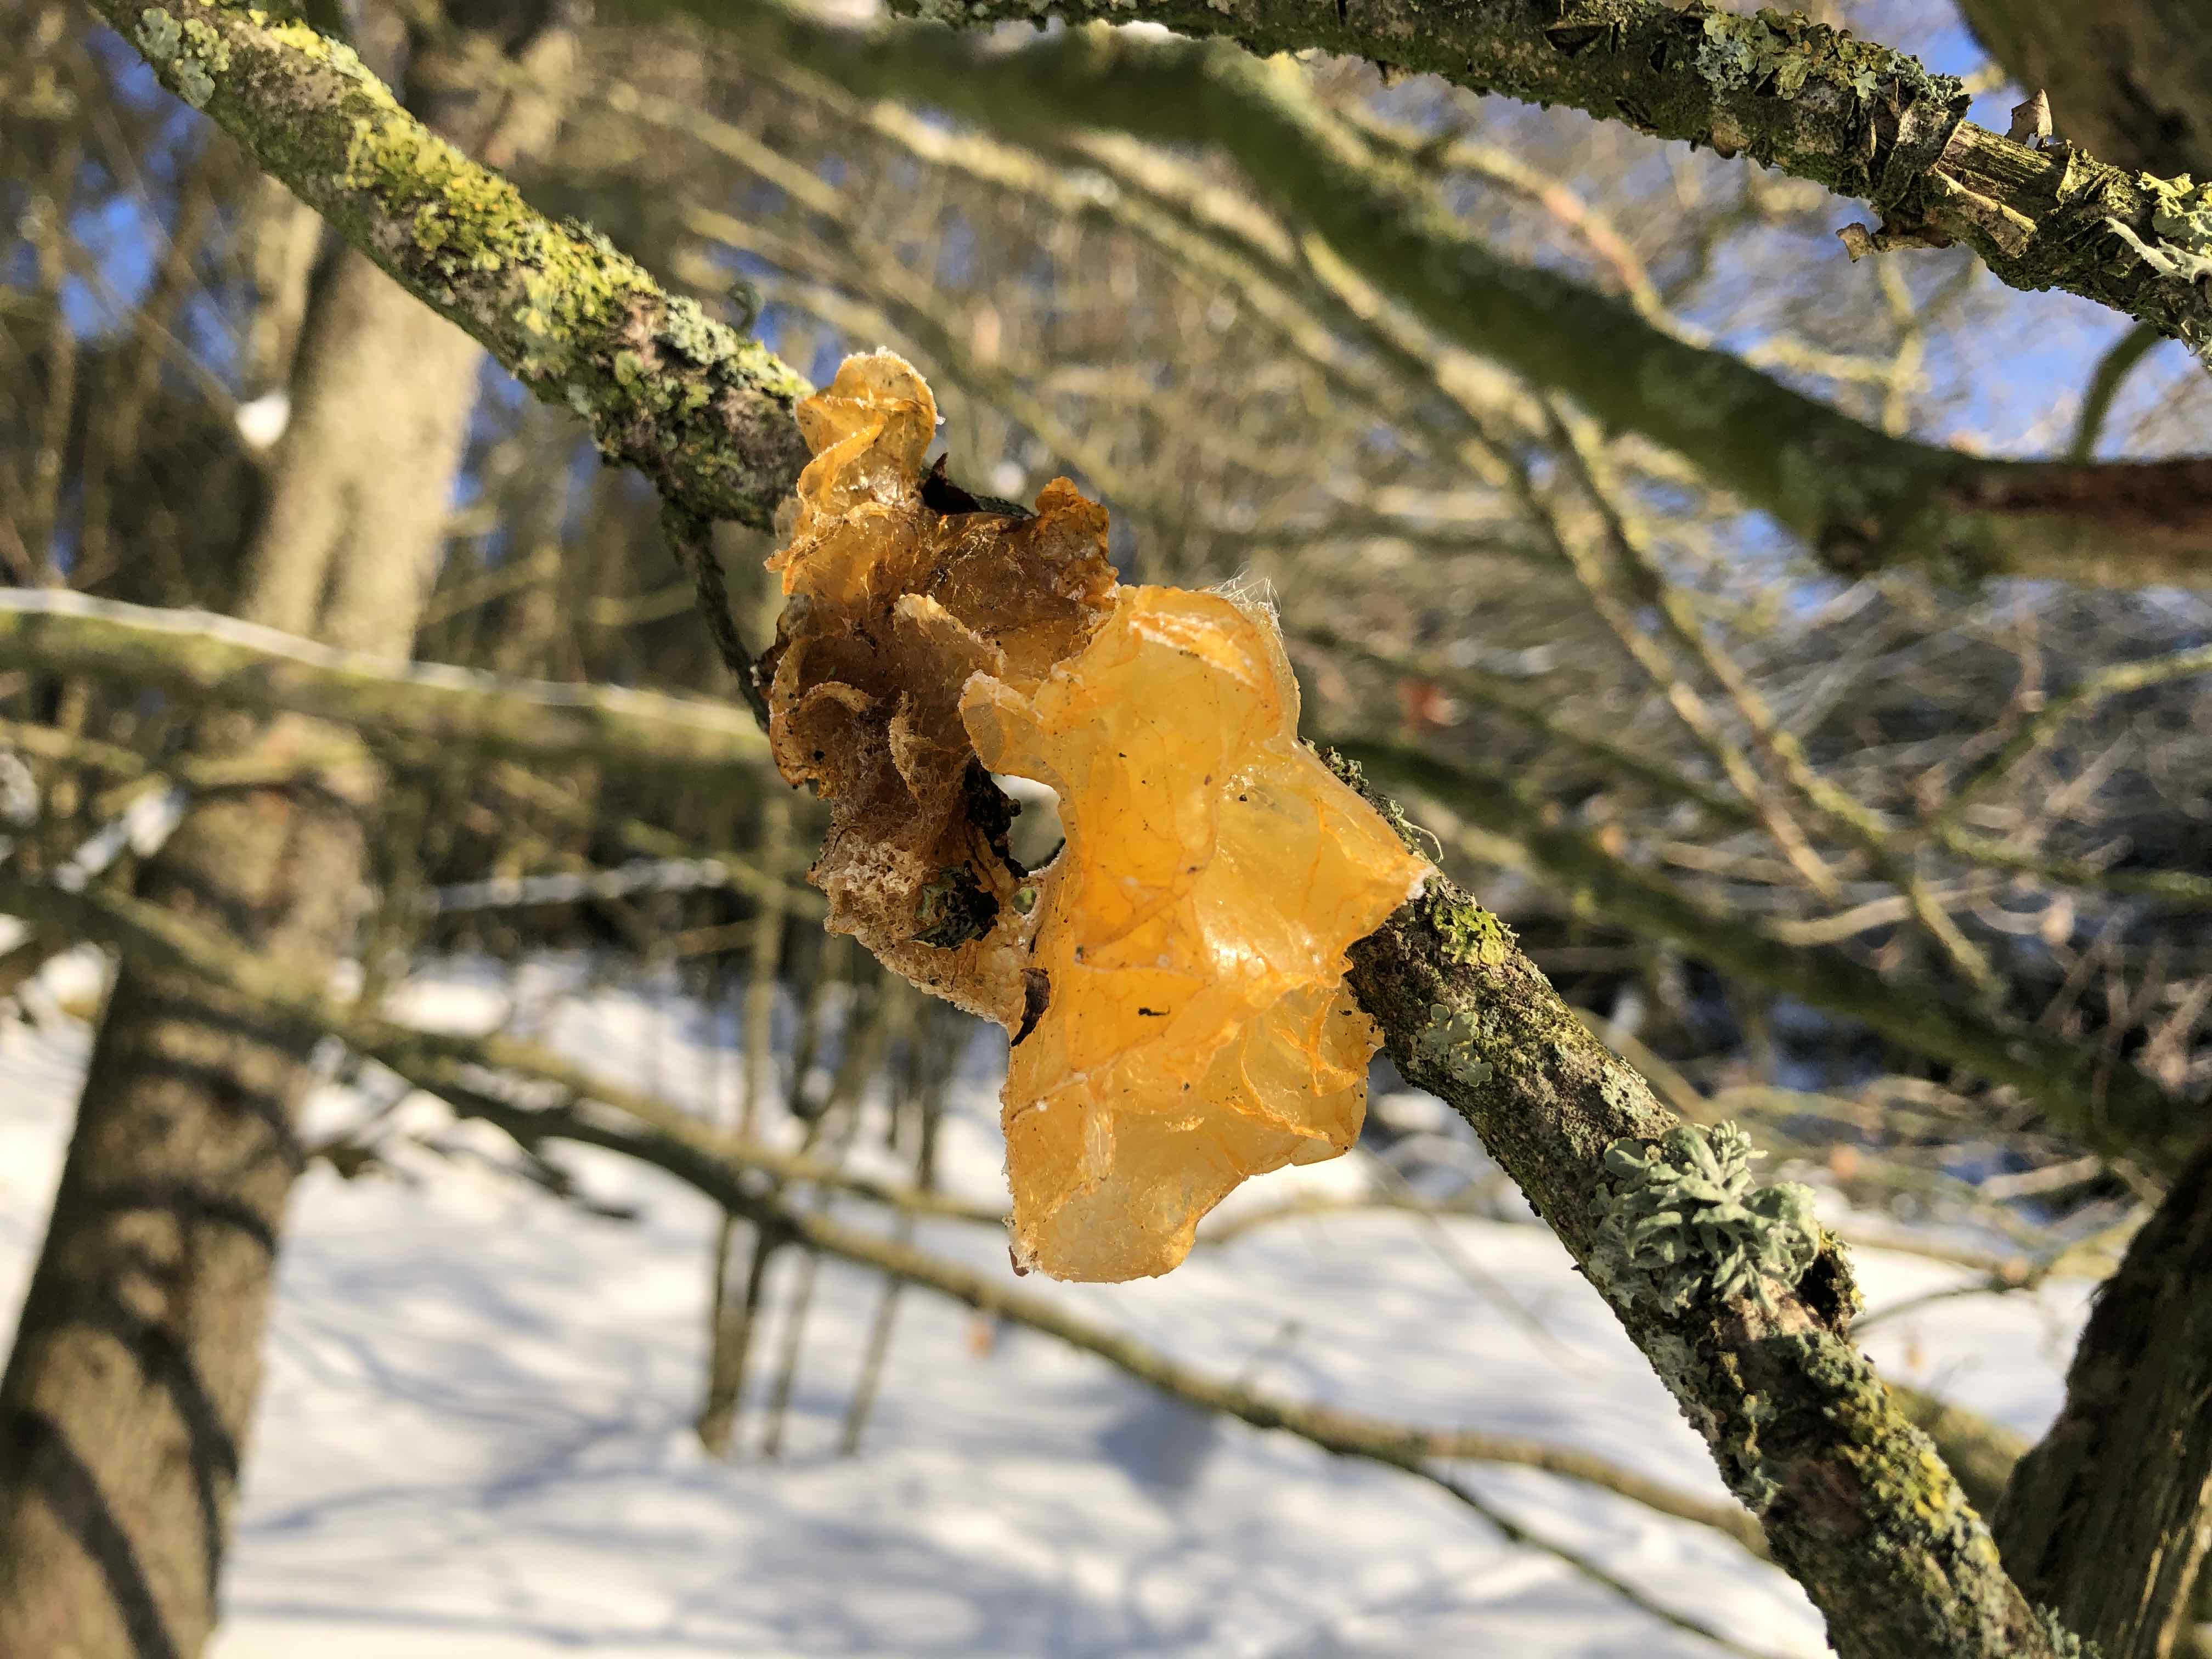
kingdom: Fungi
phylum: Basidiomycota
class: Tremellomycetes
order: Tremellales
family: Tremellaceae
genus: Tremella
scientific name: Tremella mesenterica
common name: gul bævresvamp
